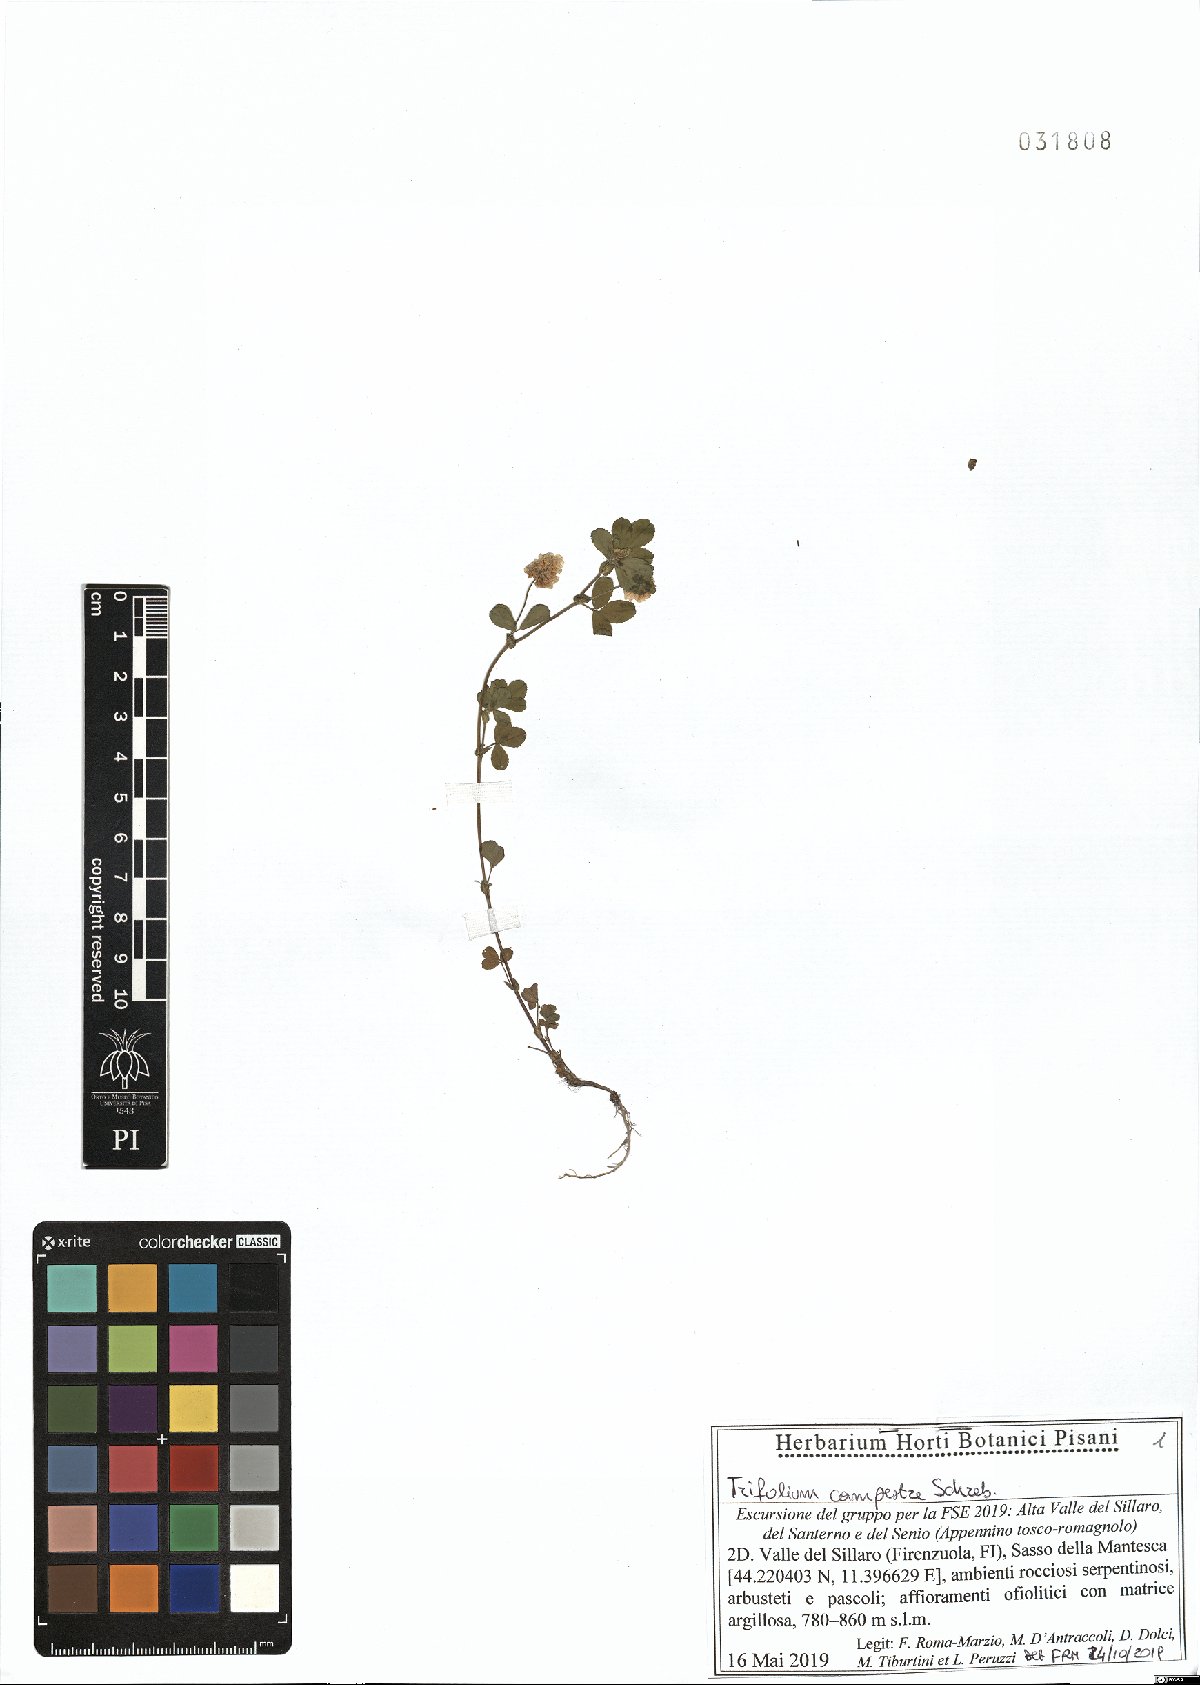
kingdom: Plantae
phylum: Tracheophyta
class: Magnoliopsida
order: Fabales
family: Fabaceae
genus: Trifolium
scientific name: Trifolium campestre
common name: Field clover
